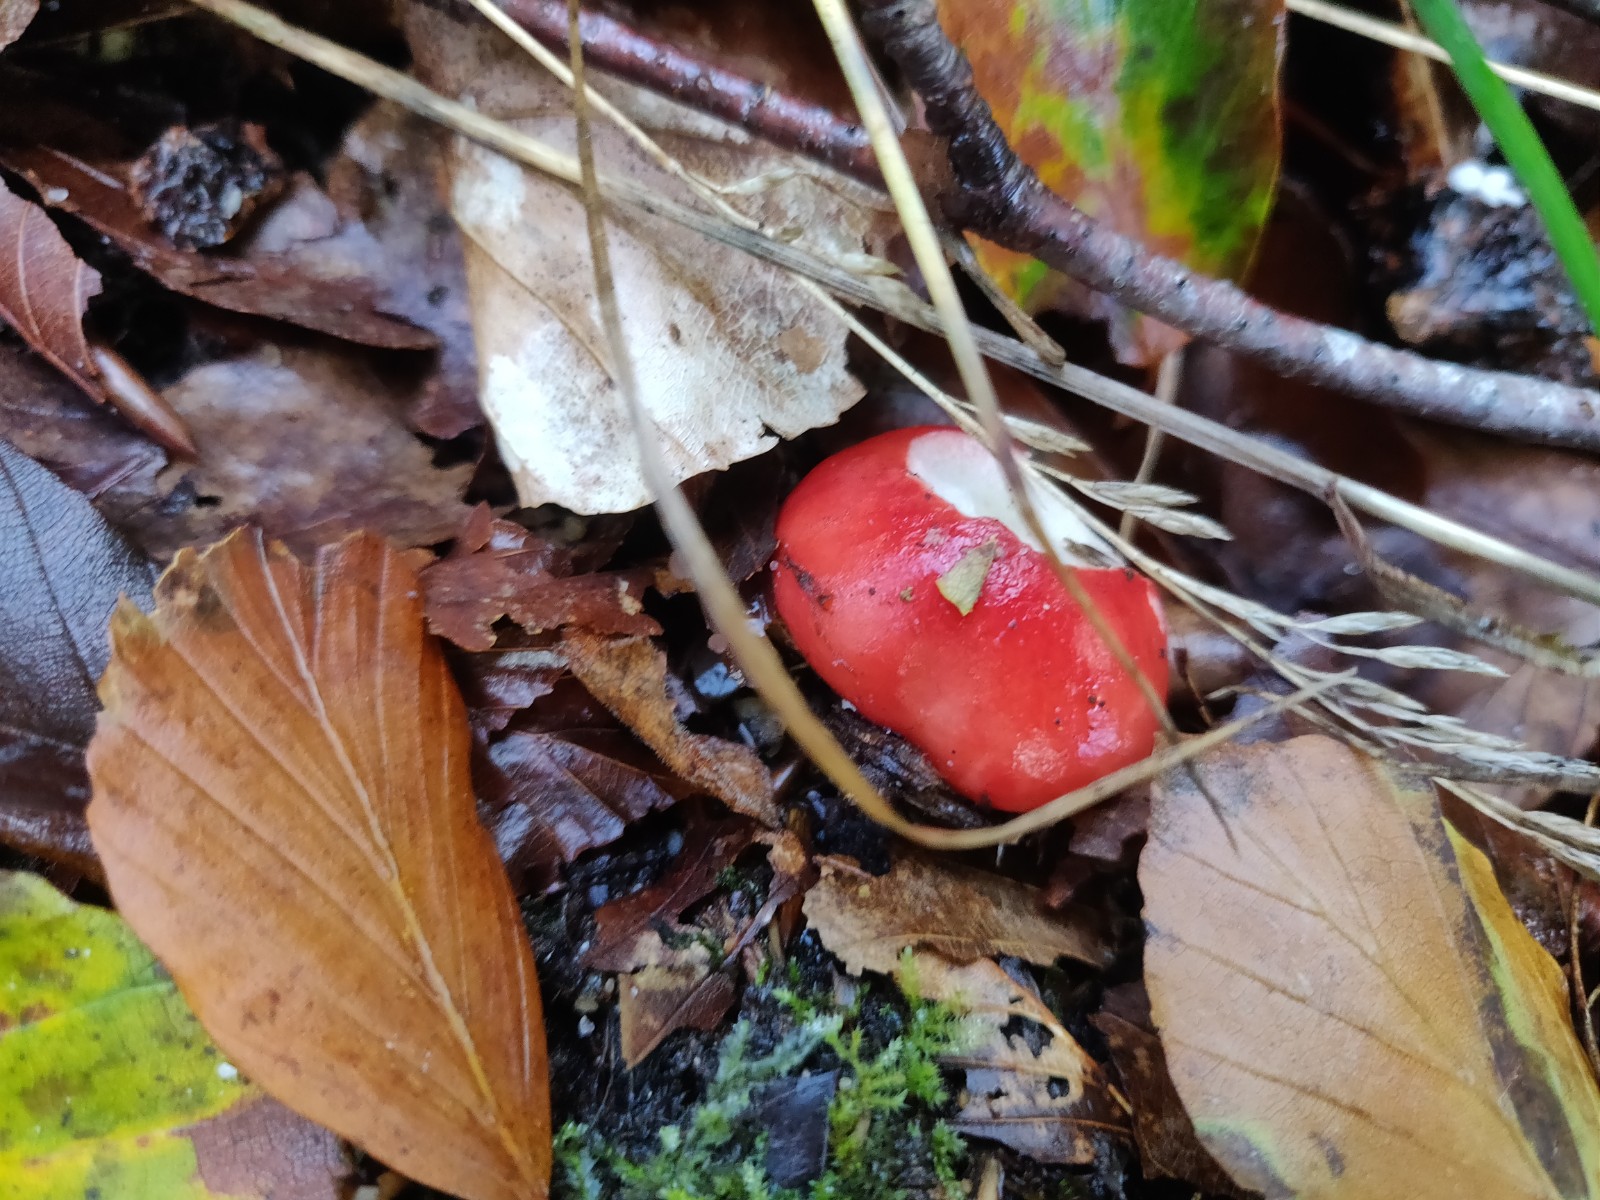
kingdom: Fungi
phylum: Basidiomycota
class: Agaricomycetes
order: Russulales
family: Russulaceae
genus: Russula
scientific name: Russula nobilis
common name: lille gift-skørhat
